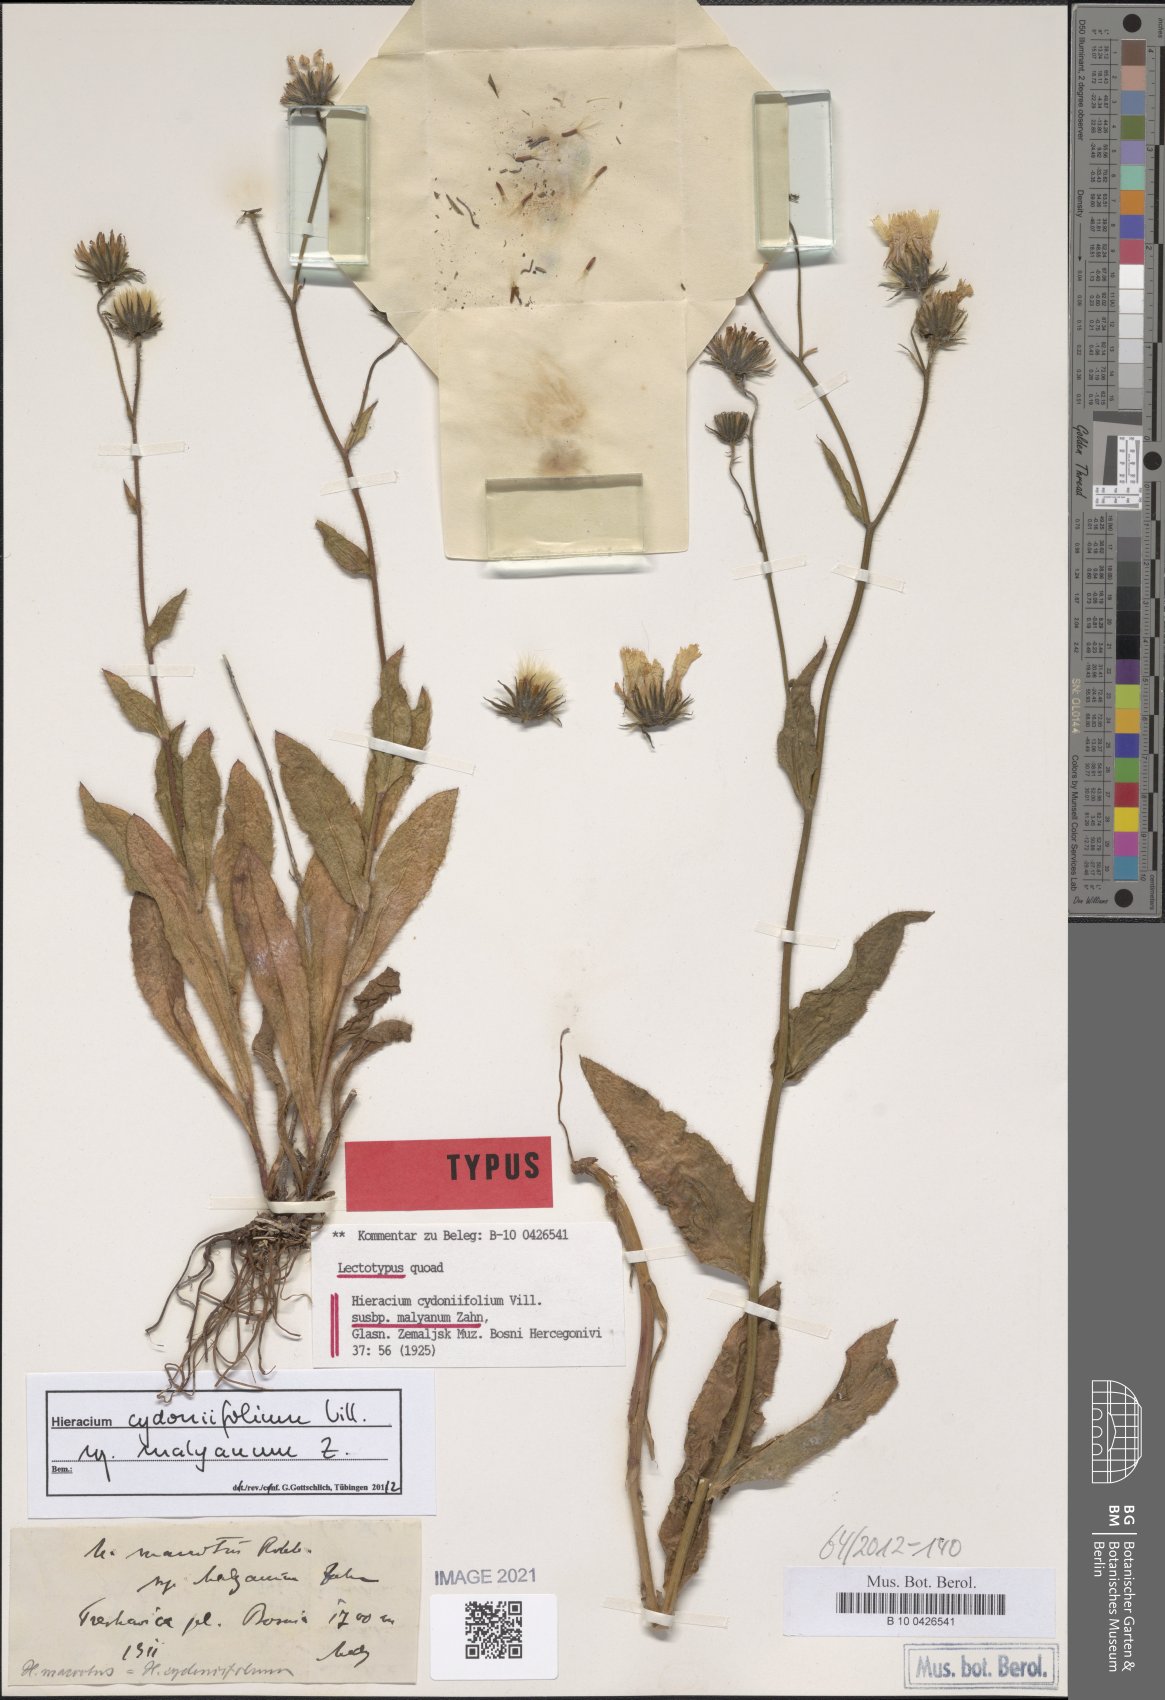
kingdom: Plantae
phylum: Tracheophyta
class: Magnoliopsida
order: Asterales
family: Asteraceae
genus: Hieracium
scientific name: Hieracium cydoniifolium
